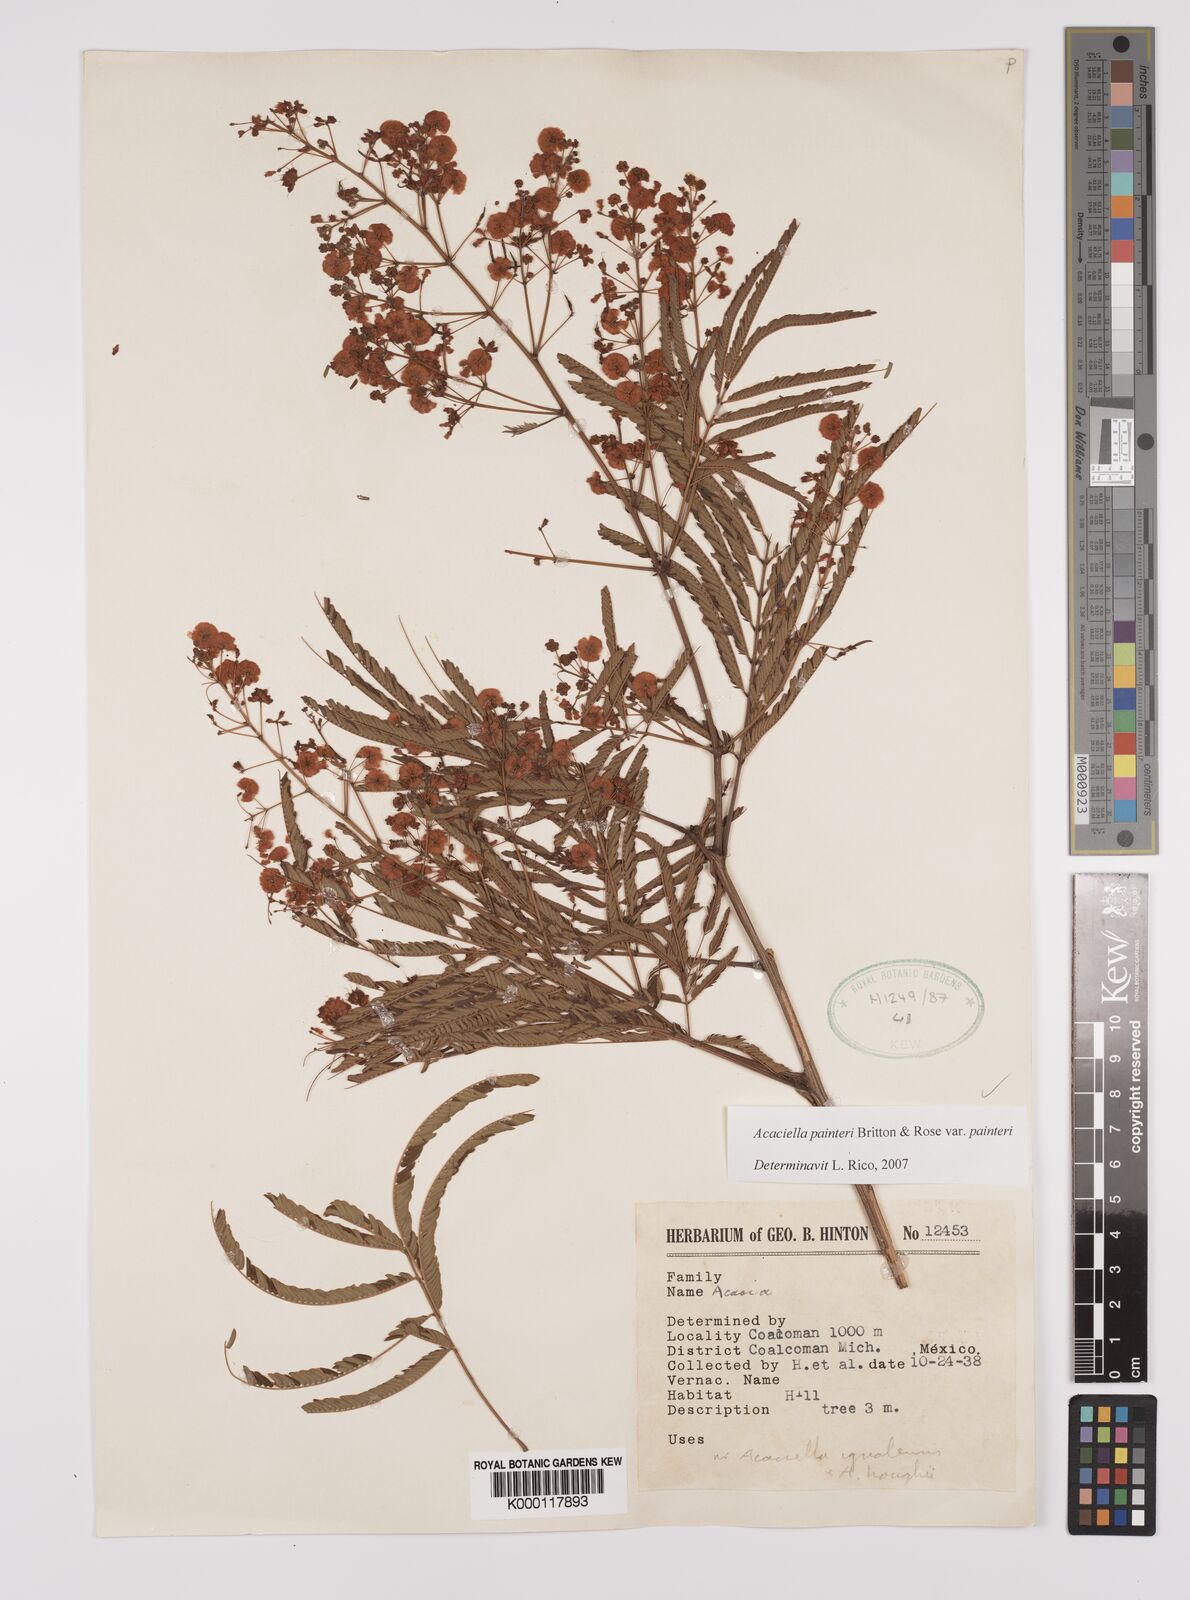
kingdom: Plantae
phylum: Tracheophyta
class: Magnoliopsida
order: Fabales
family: Fabaceae
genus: Acaciella
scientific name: Acaciella painteri
